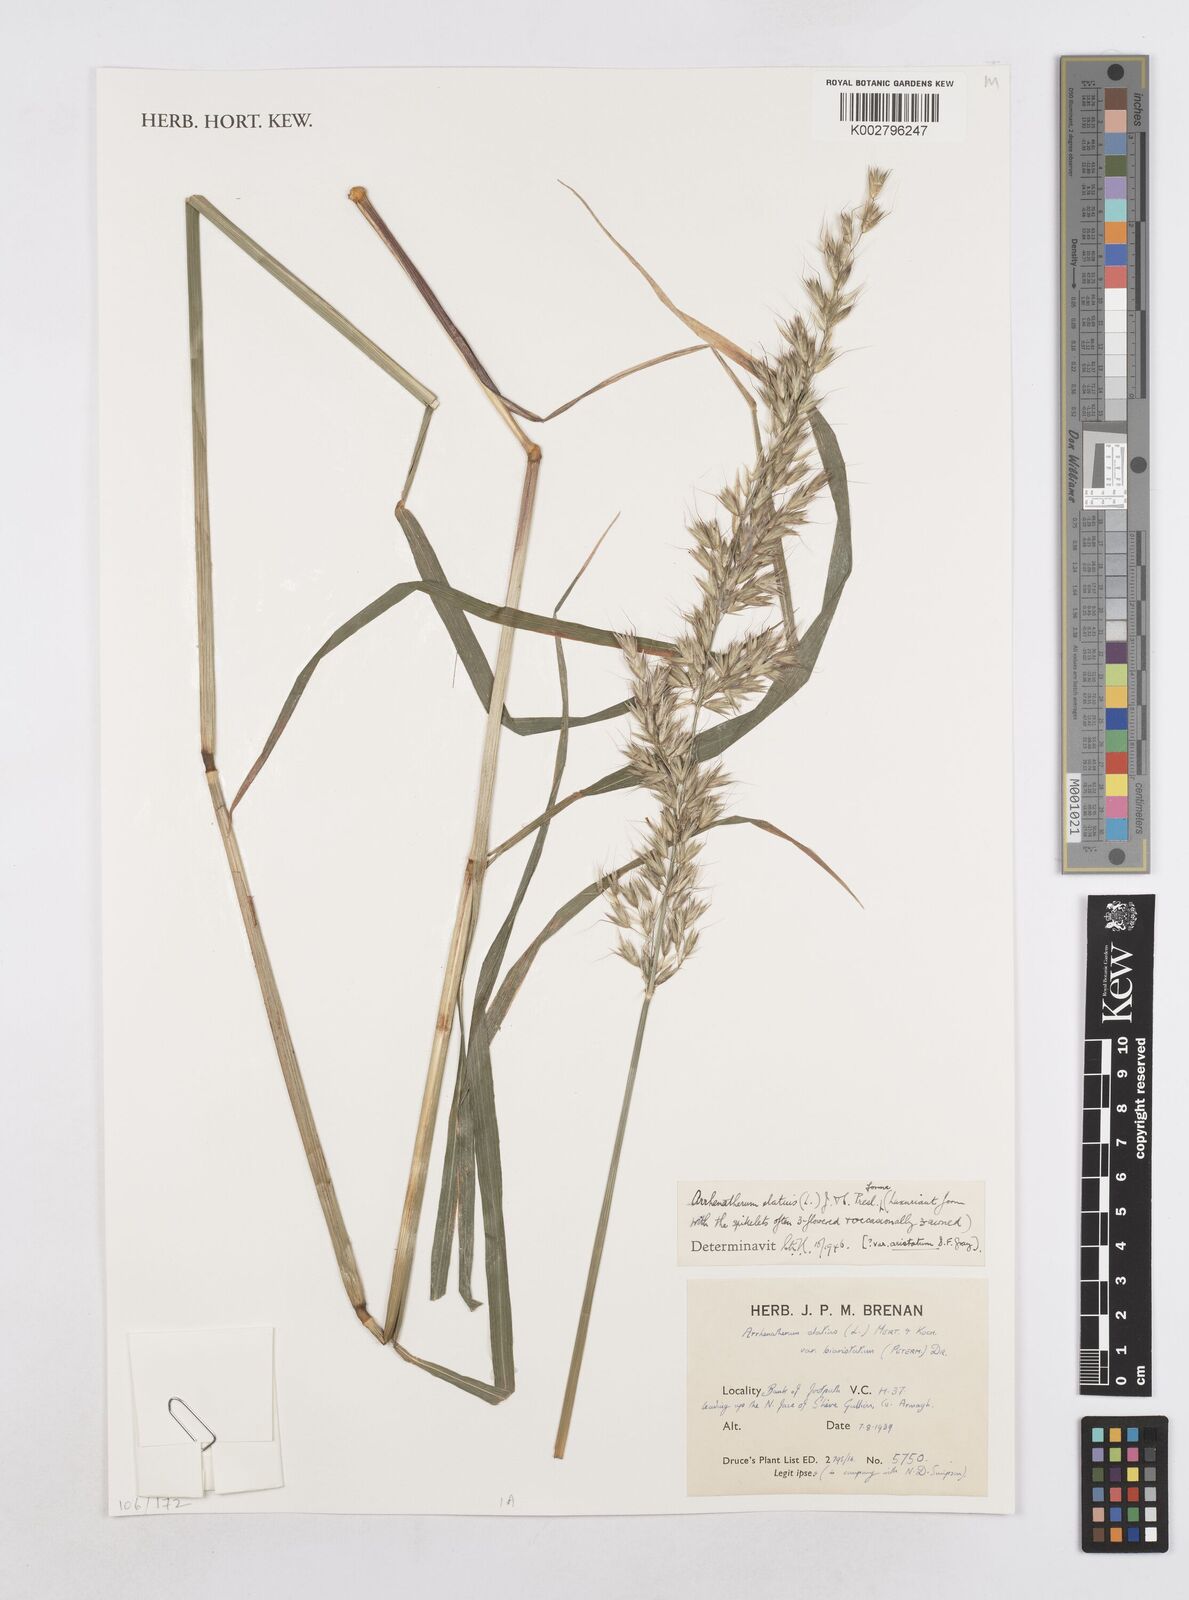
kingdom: Plantae
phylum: Tracheophyta
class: Liliopsida
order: Poales
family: Poaceae
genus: Arrhenatherum
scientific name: Arrhenatherum elatius
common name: Tall oatgrass
